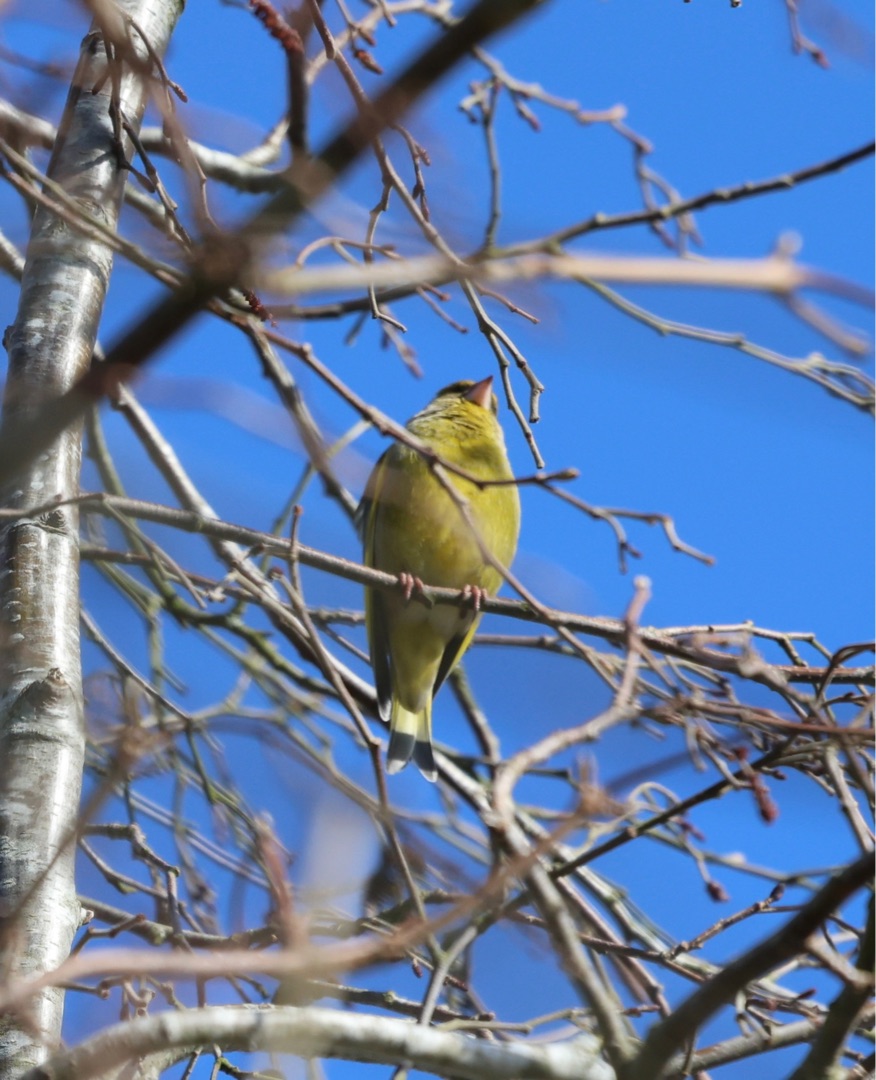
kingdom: Plantae
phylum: Tracheophyta
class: Liliopsida
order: Poales
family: Poaceae
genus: Chloris
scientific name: Chloris chloris
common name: Grønirisk
